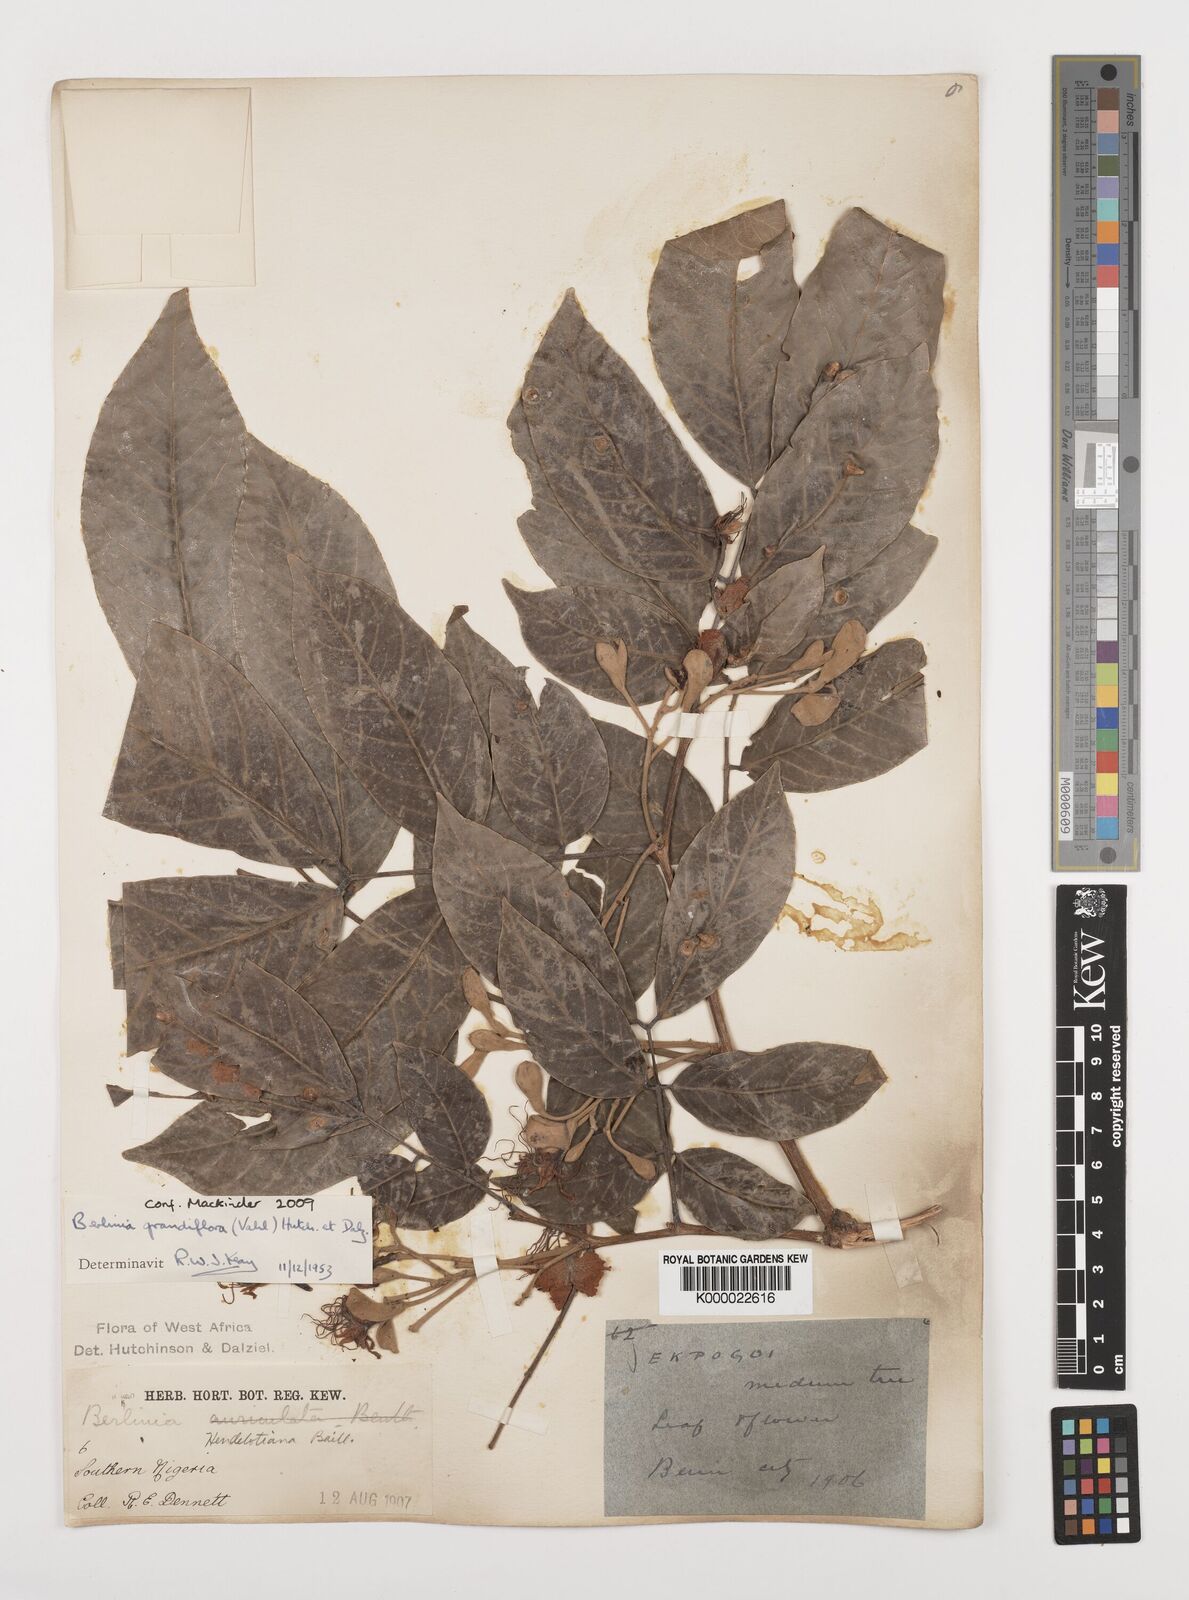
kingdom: Plantae
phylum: Tracheophyta
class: Magnoliopsida
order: Fabales
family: Fabaceae
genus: Berlinia
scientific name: Berlinia grandiflora
